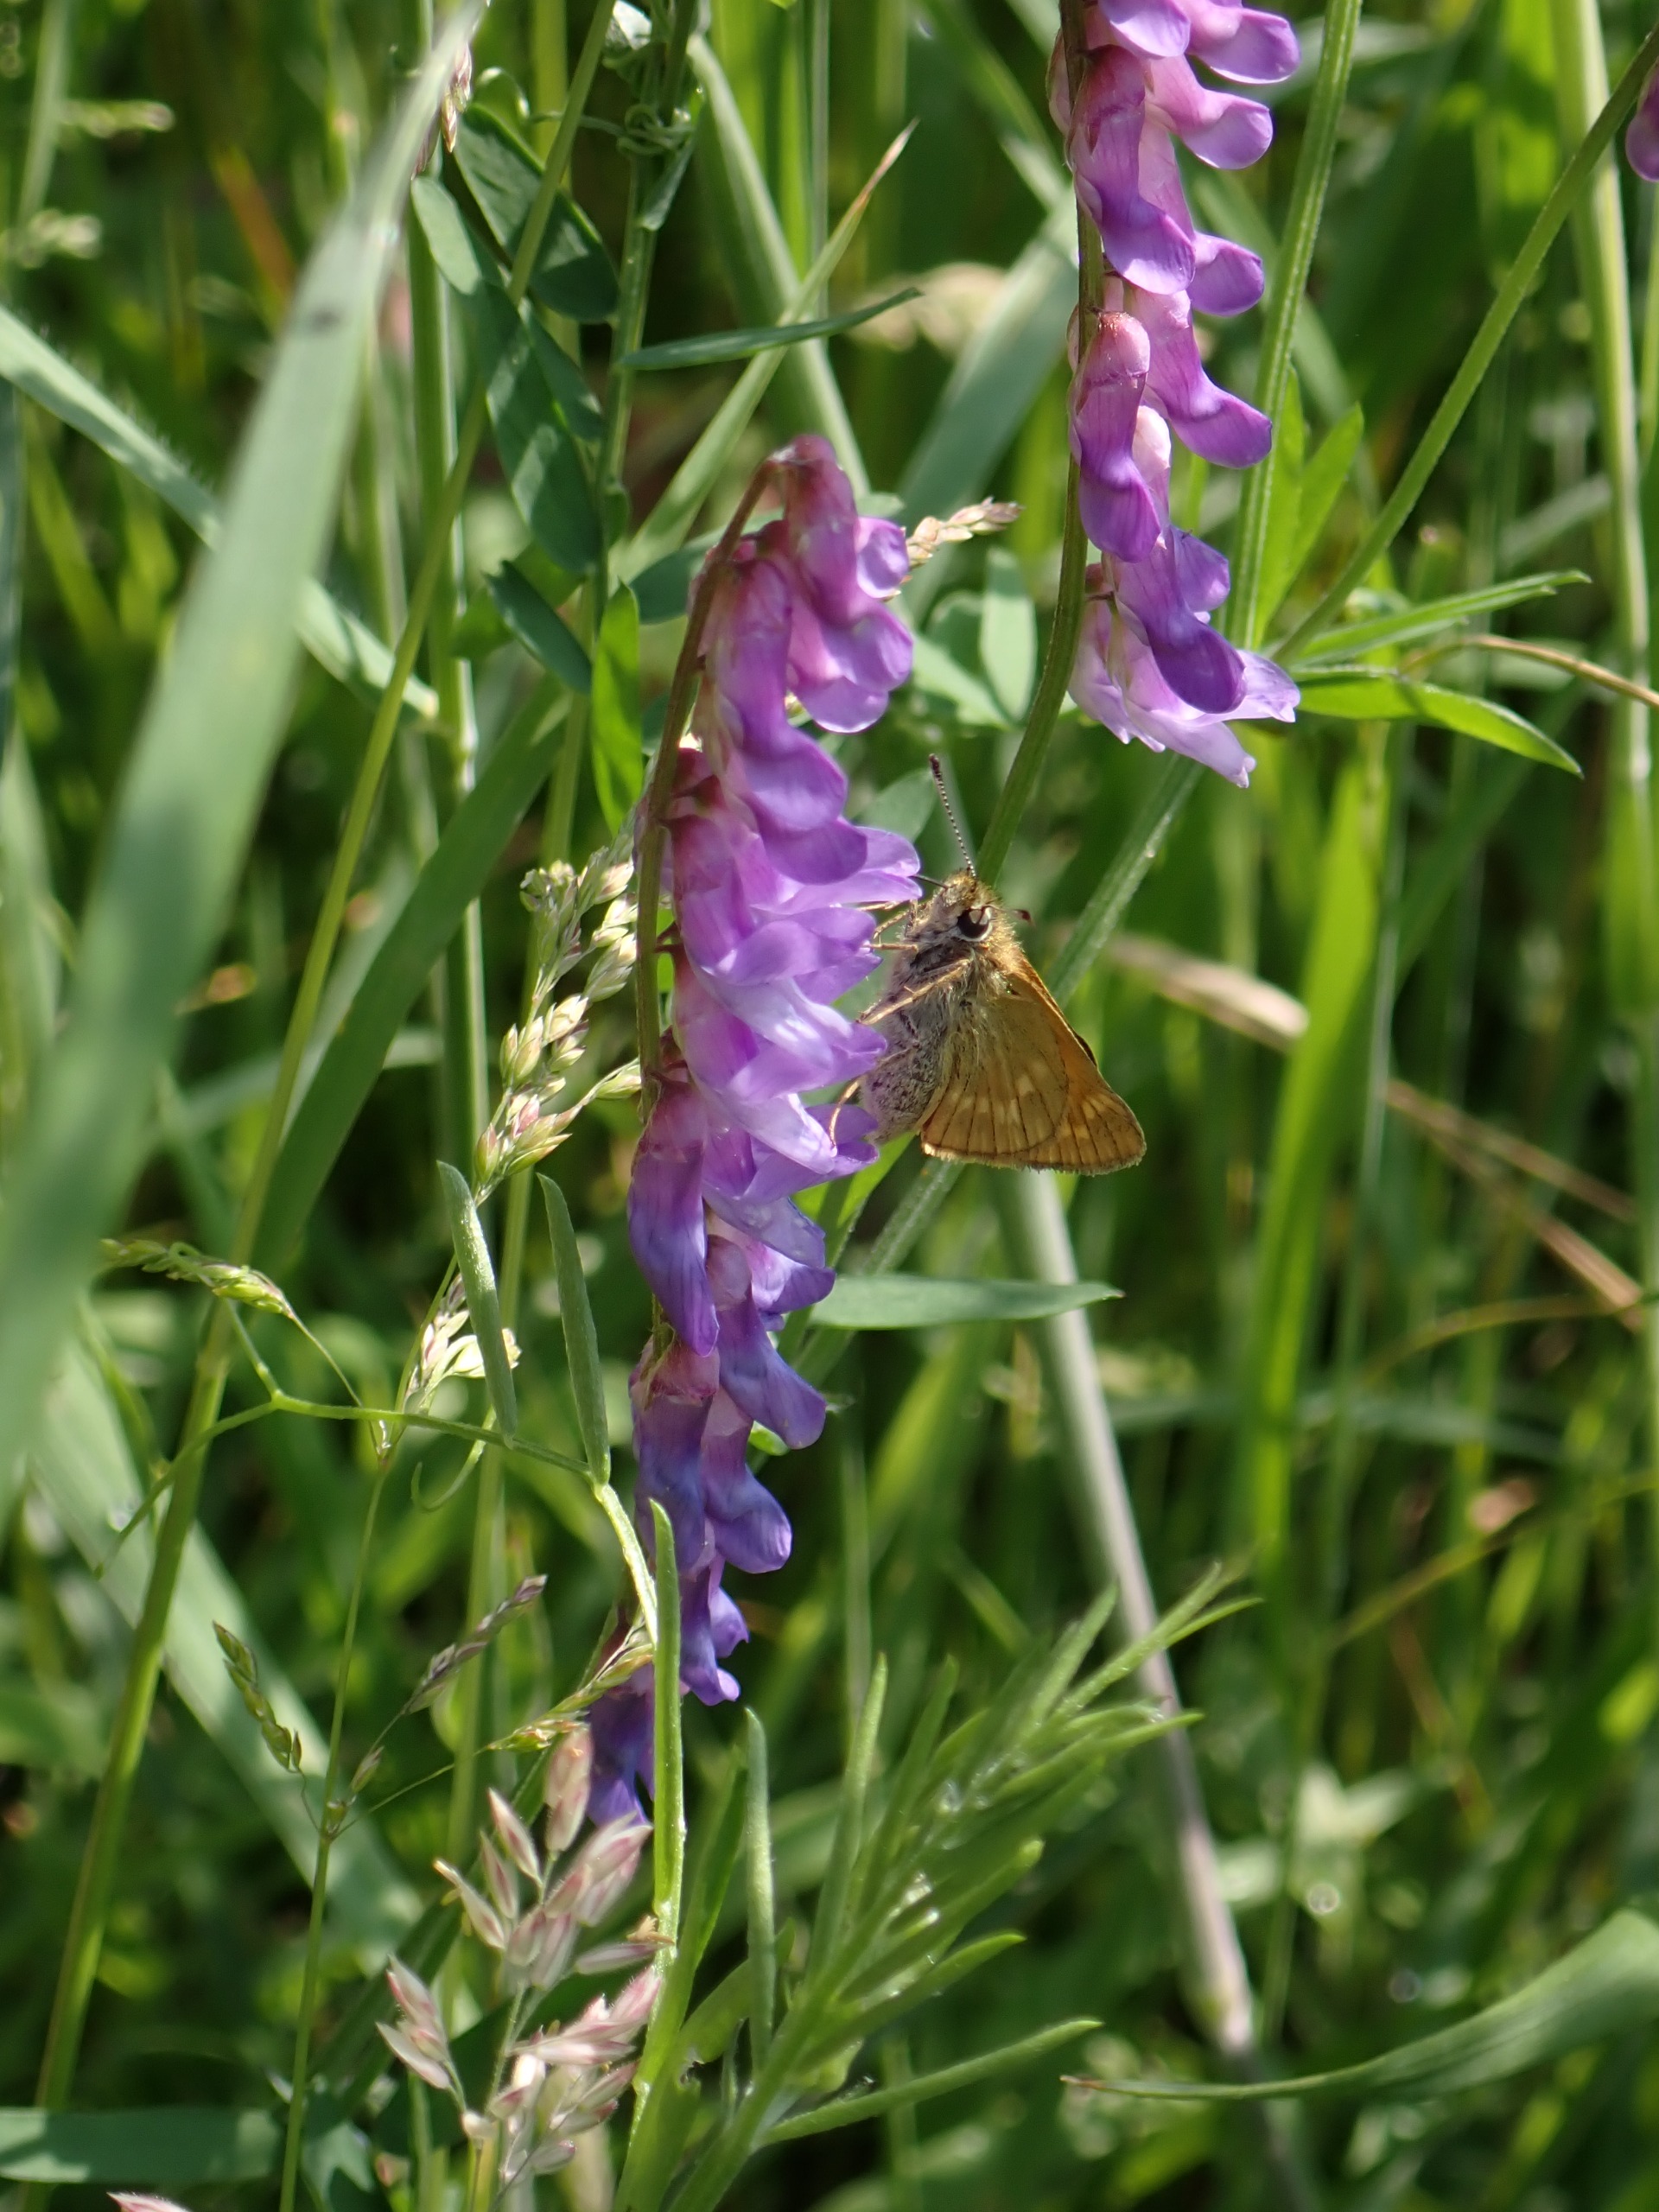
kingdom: Animalia
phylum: Arthropoda
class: Insecta
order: Lepidoptera
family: Hesperiidae
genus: Ochlodes
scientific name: Ochlodes venata
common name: Stor bredpande
